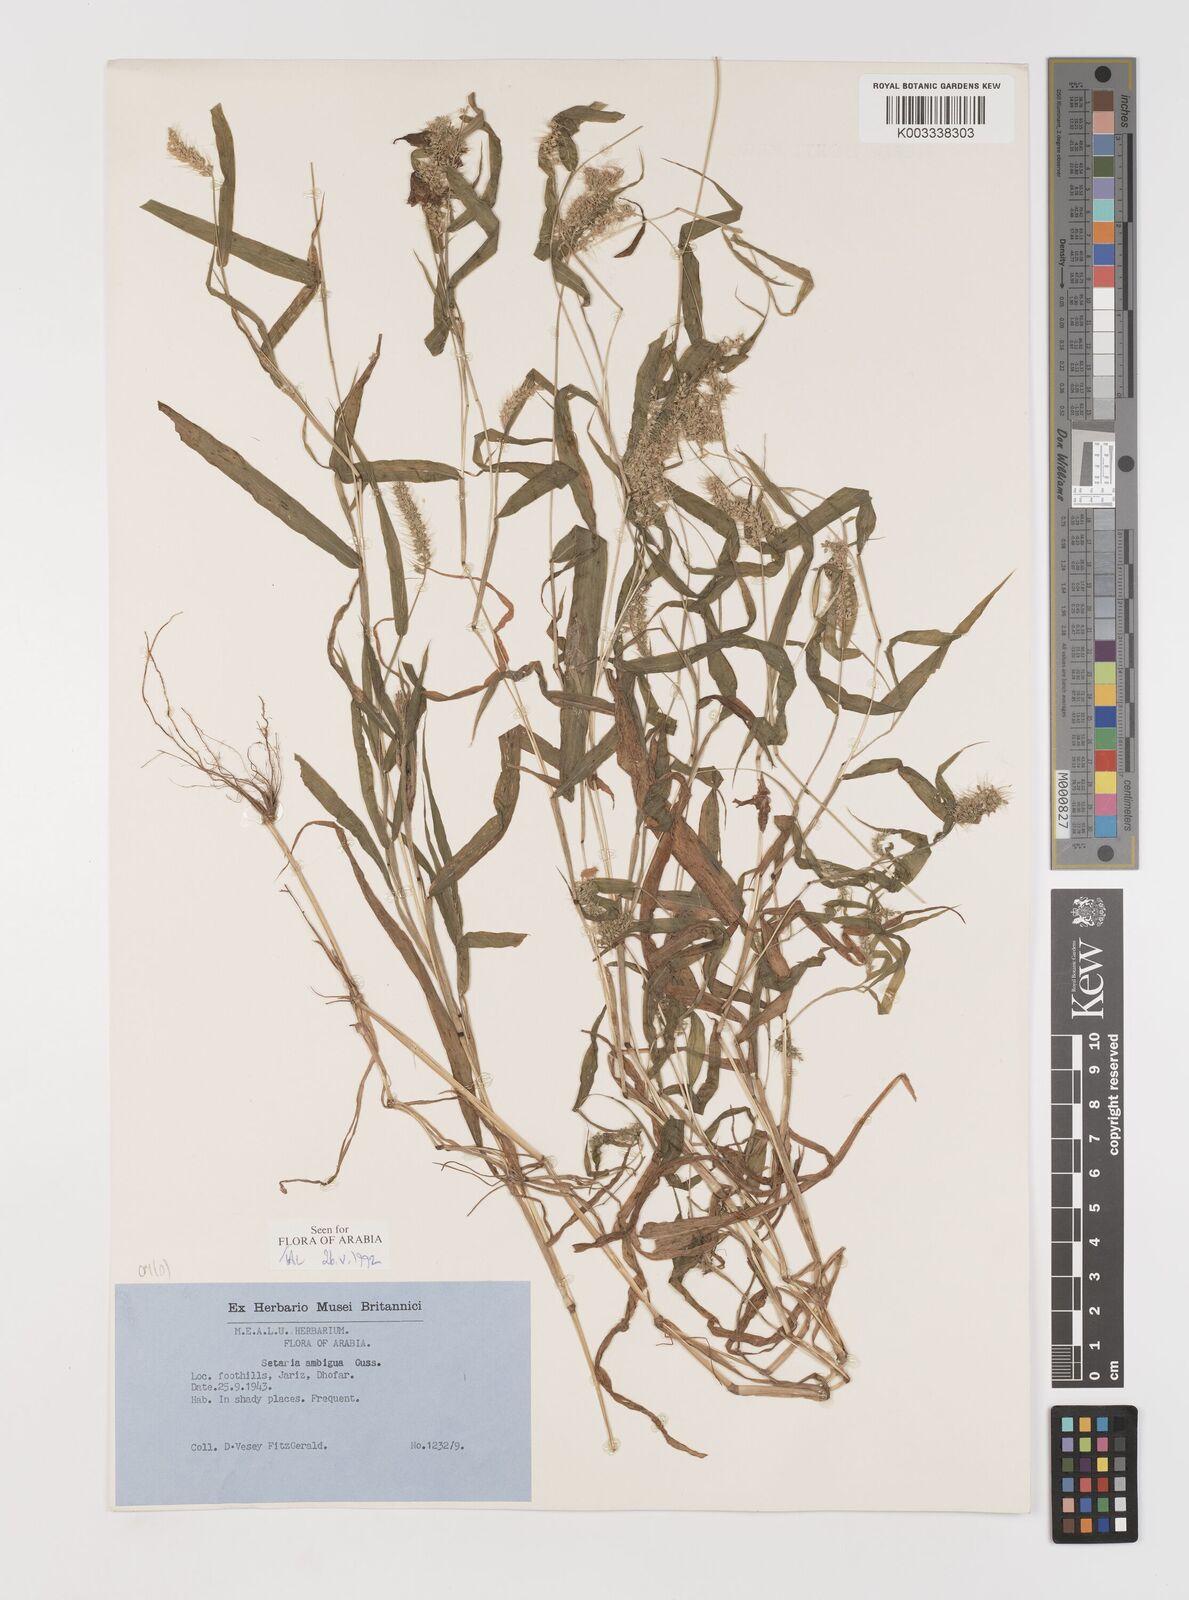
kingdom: Plantae
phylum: Tracheophyta
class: Liliopsida
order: Poales
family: Poaceae
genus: Setaria
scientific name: Setaria verticillata
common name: Hooked bristlegrass
